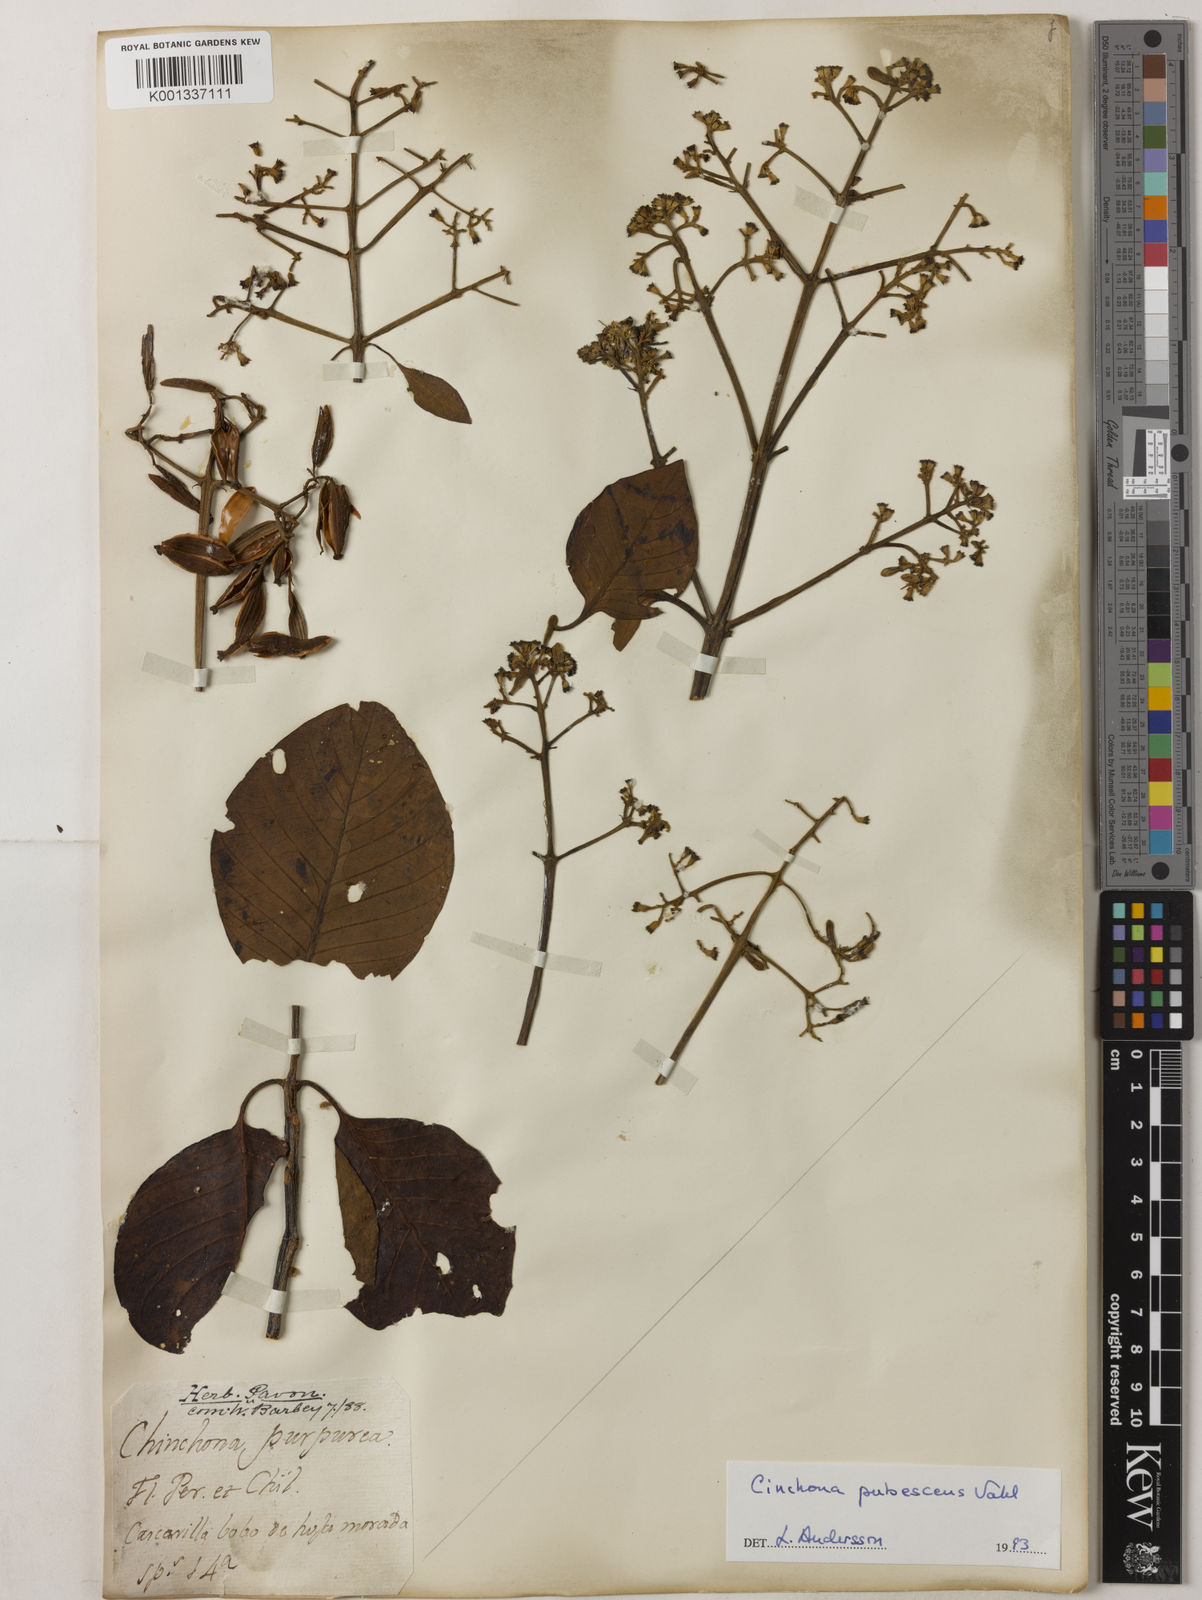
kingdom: Plantae
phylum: Tracheophyta
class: Magnoliopsida
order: Gentianales
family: Rubiaceae
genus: Cinchona
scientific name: Cinchona pubescens
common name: Quinine
